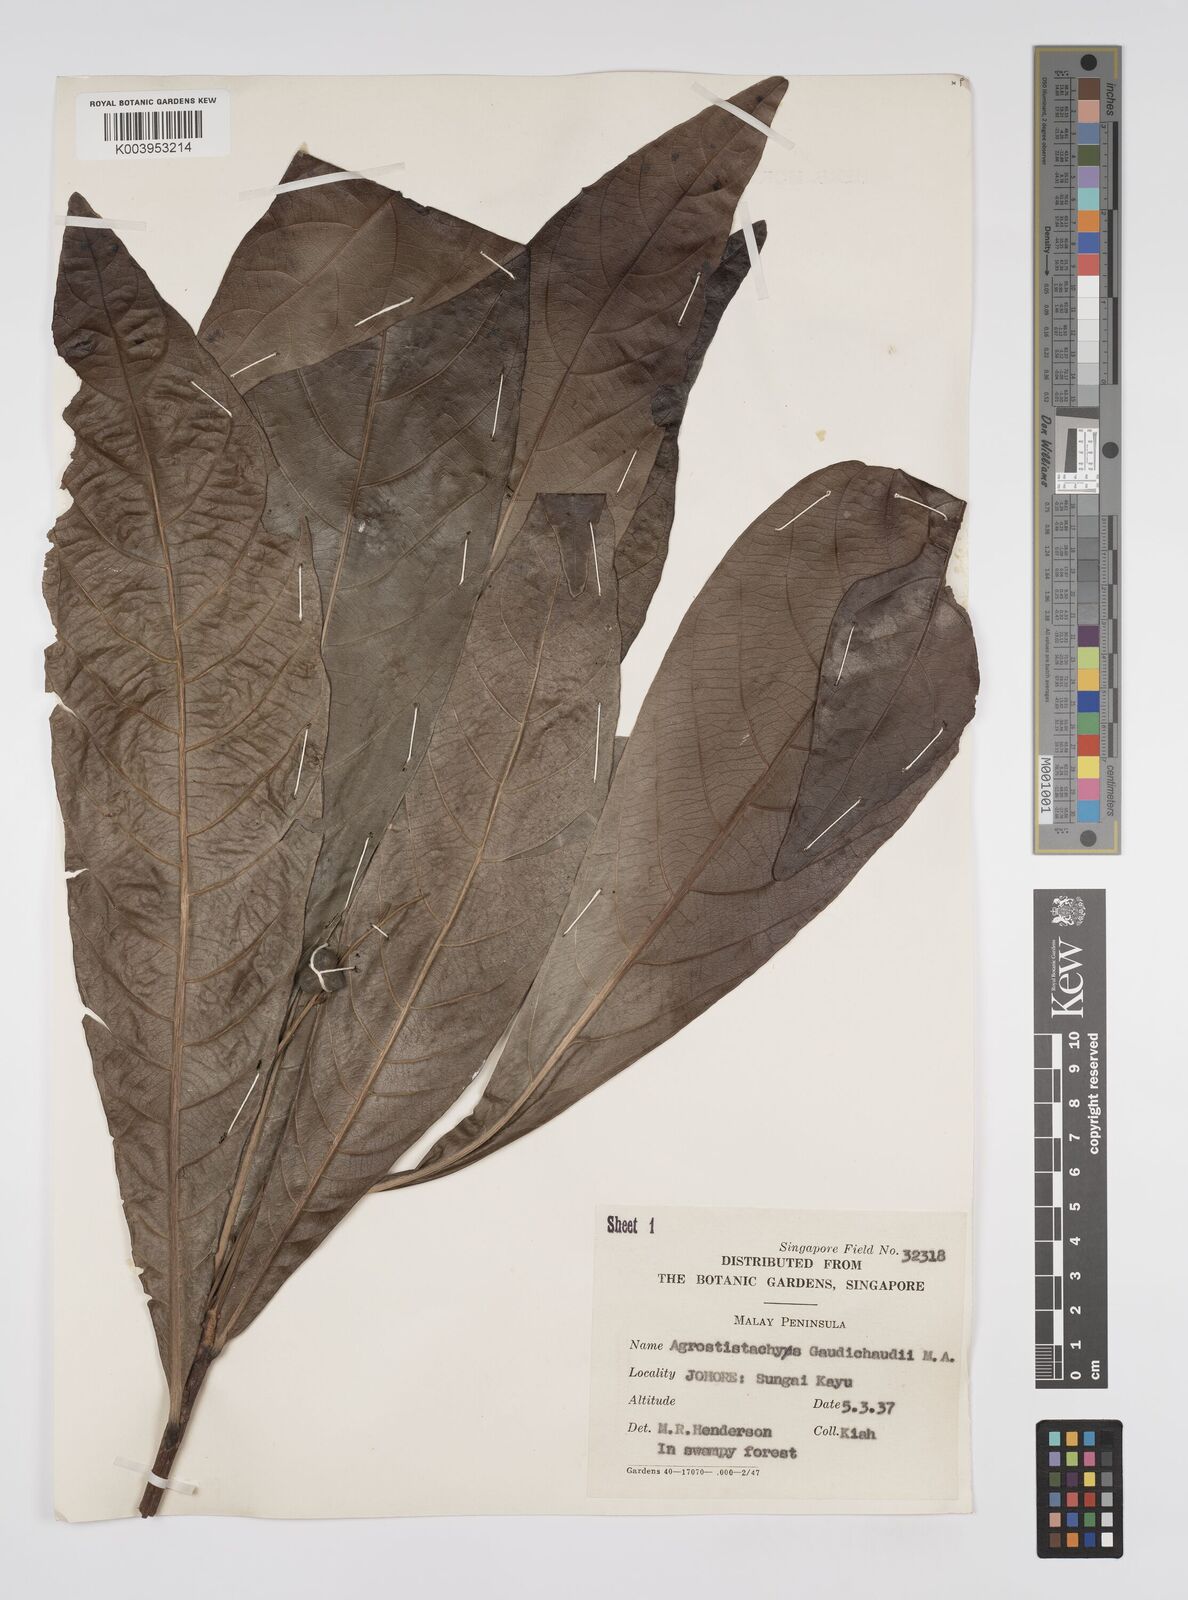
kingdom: Plantae
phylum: Tracheophyta
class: Magnoliopsida
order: Malpighiales
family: Euphorbiaceae
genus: Agrostistachys
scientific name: Agrostistachys gaudichaudii
